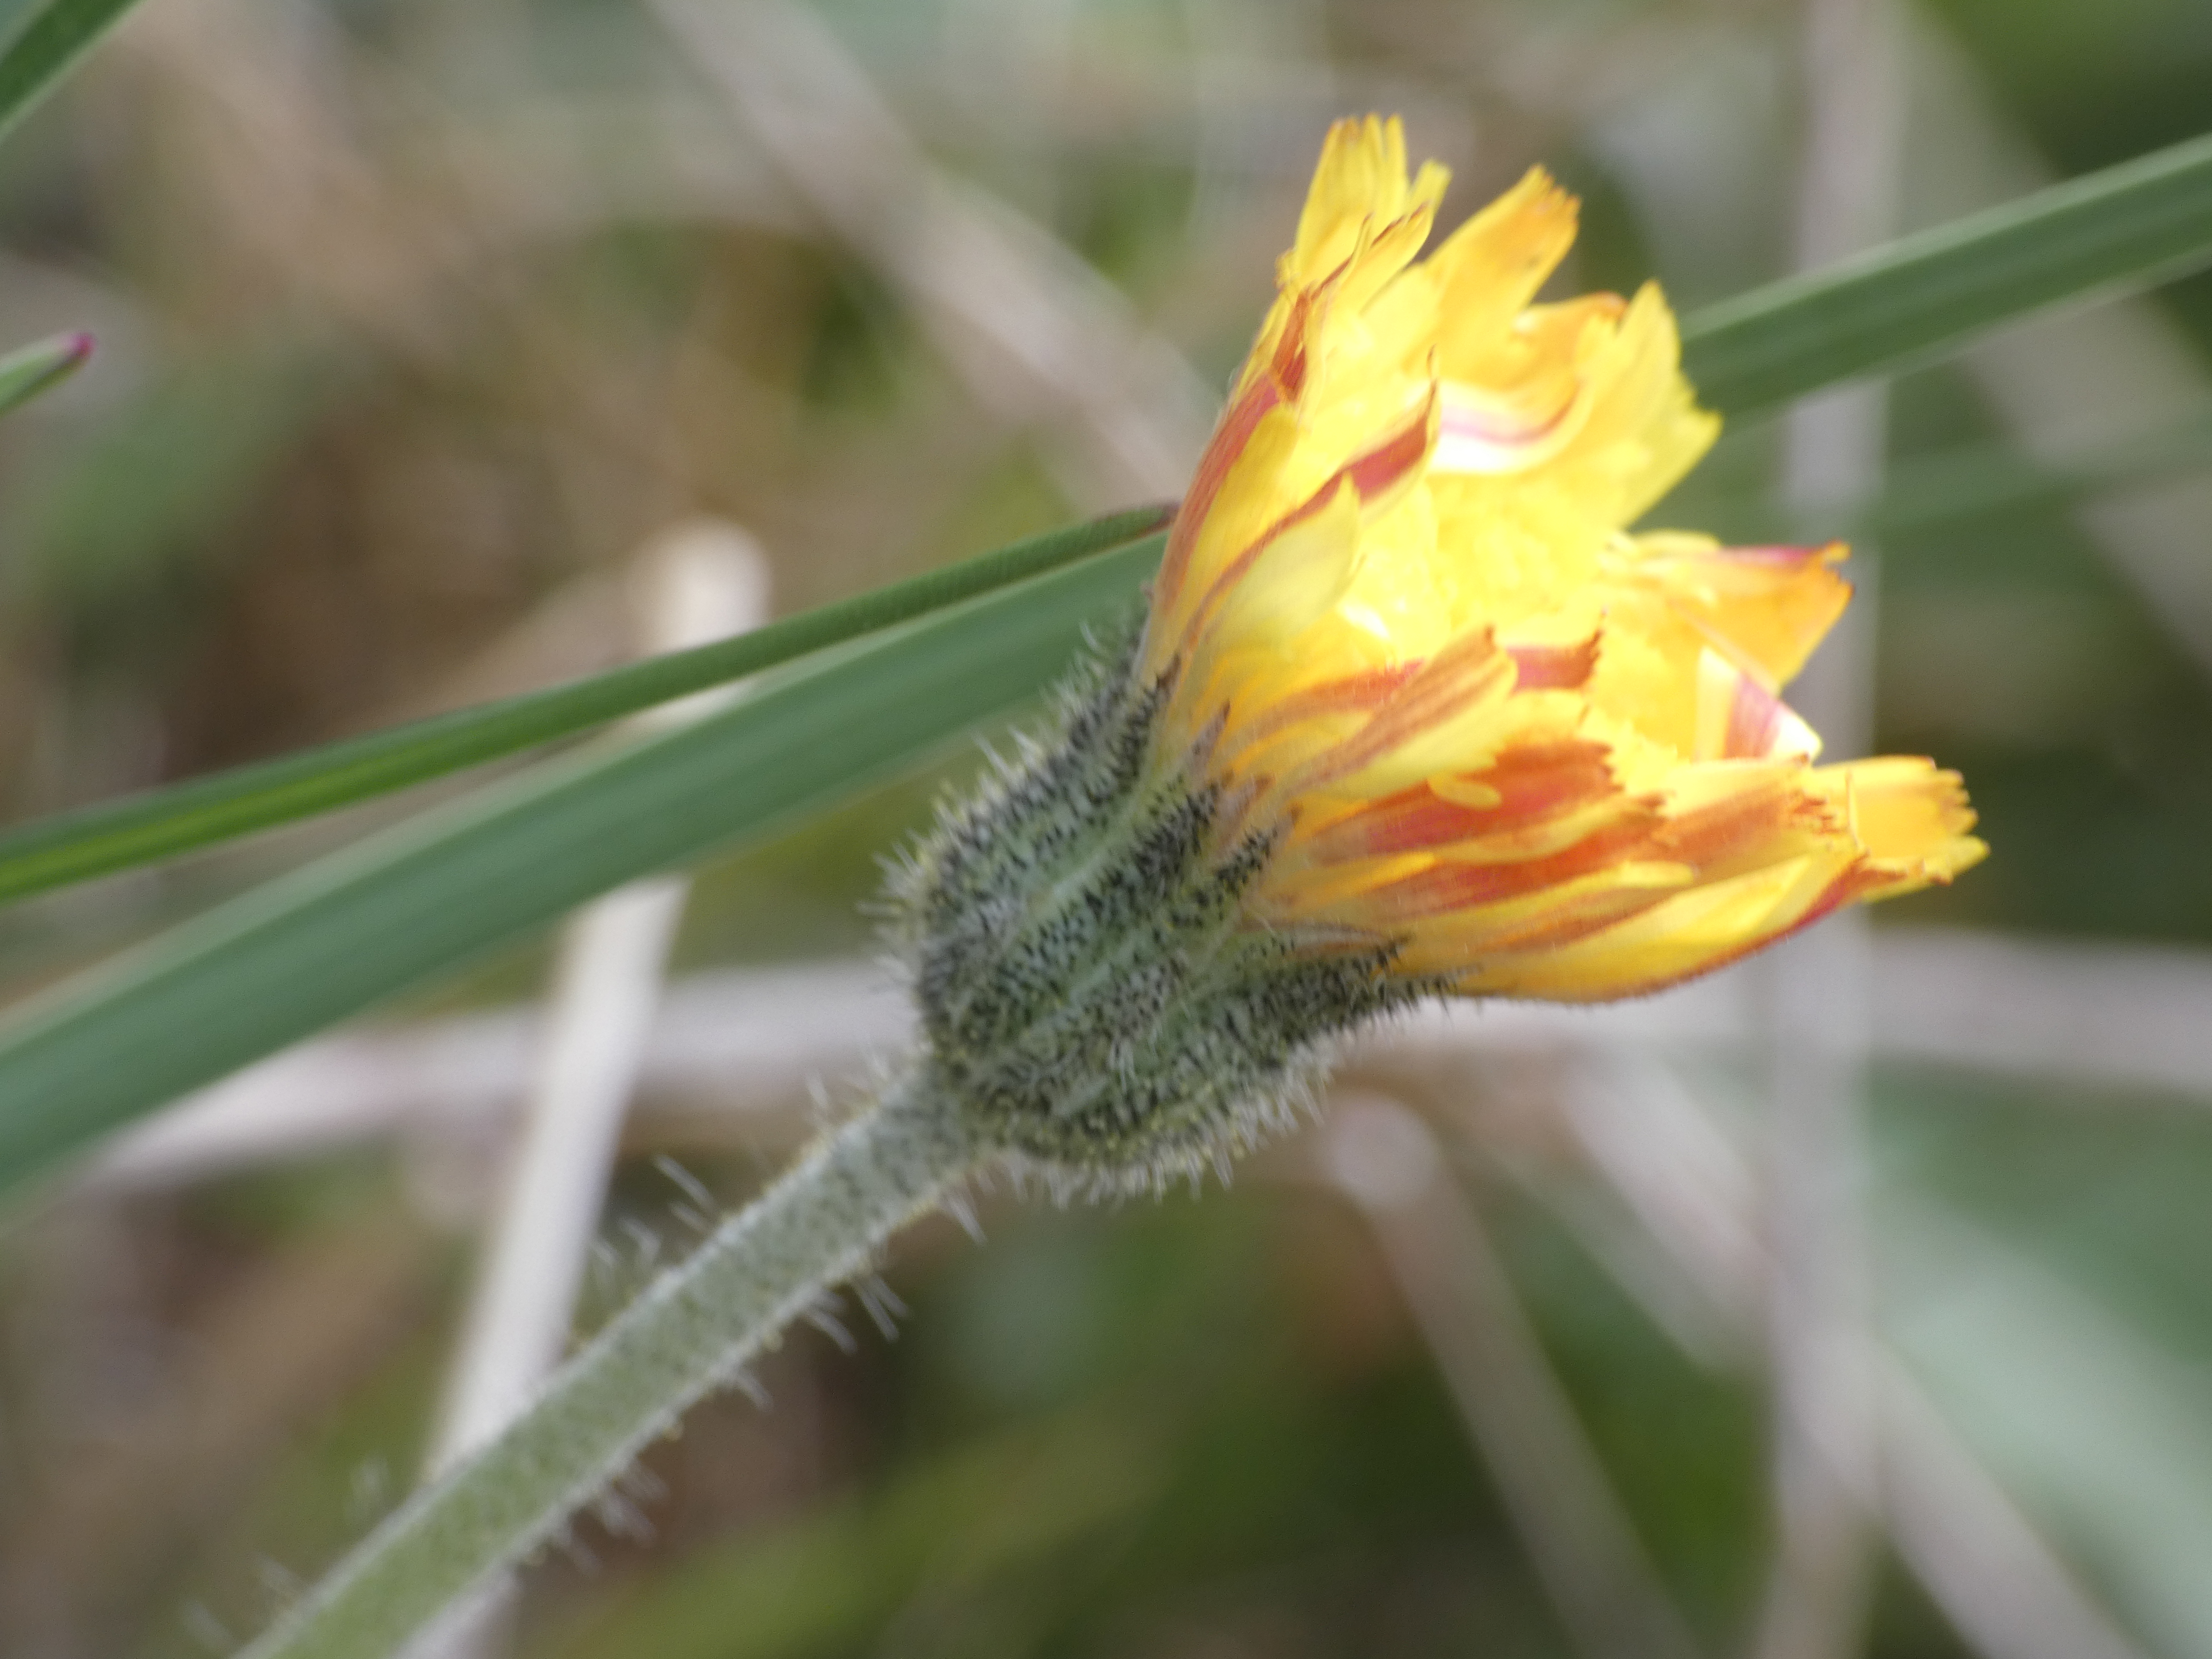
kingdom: Plantae
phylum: Tracheophyta
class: Magnoliopsida
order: Asterales
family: Asteraceae
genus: Pilosella
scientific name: Pilosella officinarum
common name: Håret høgeurt
